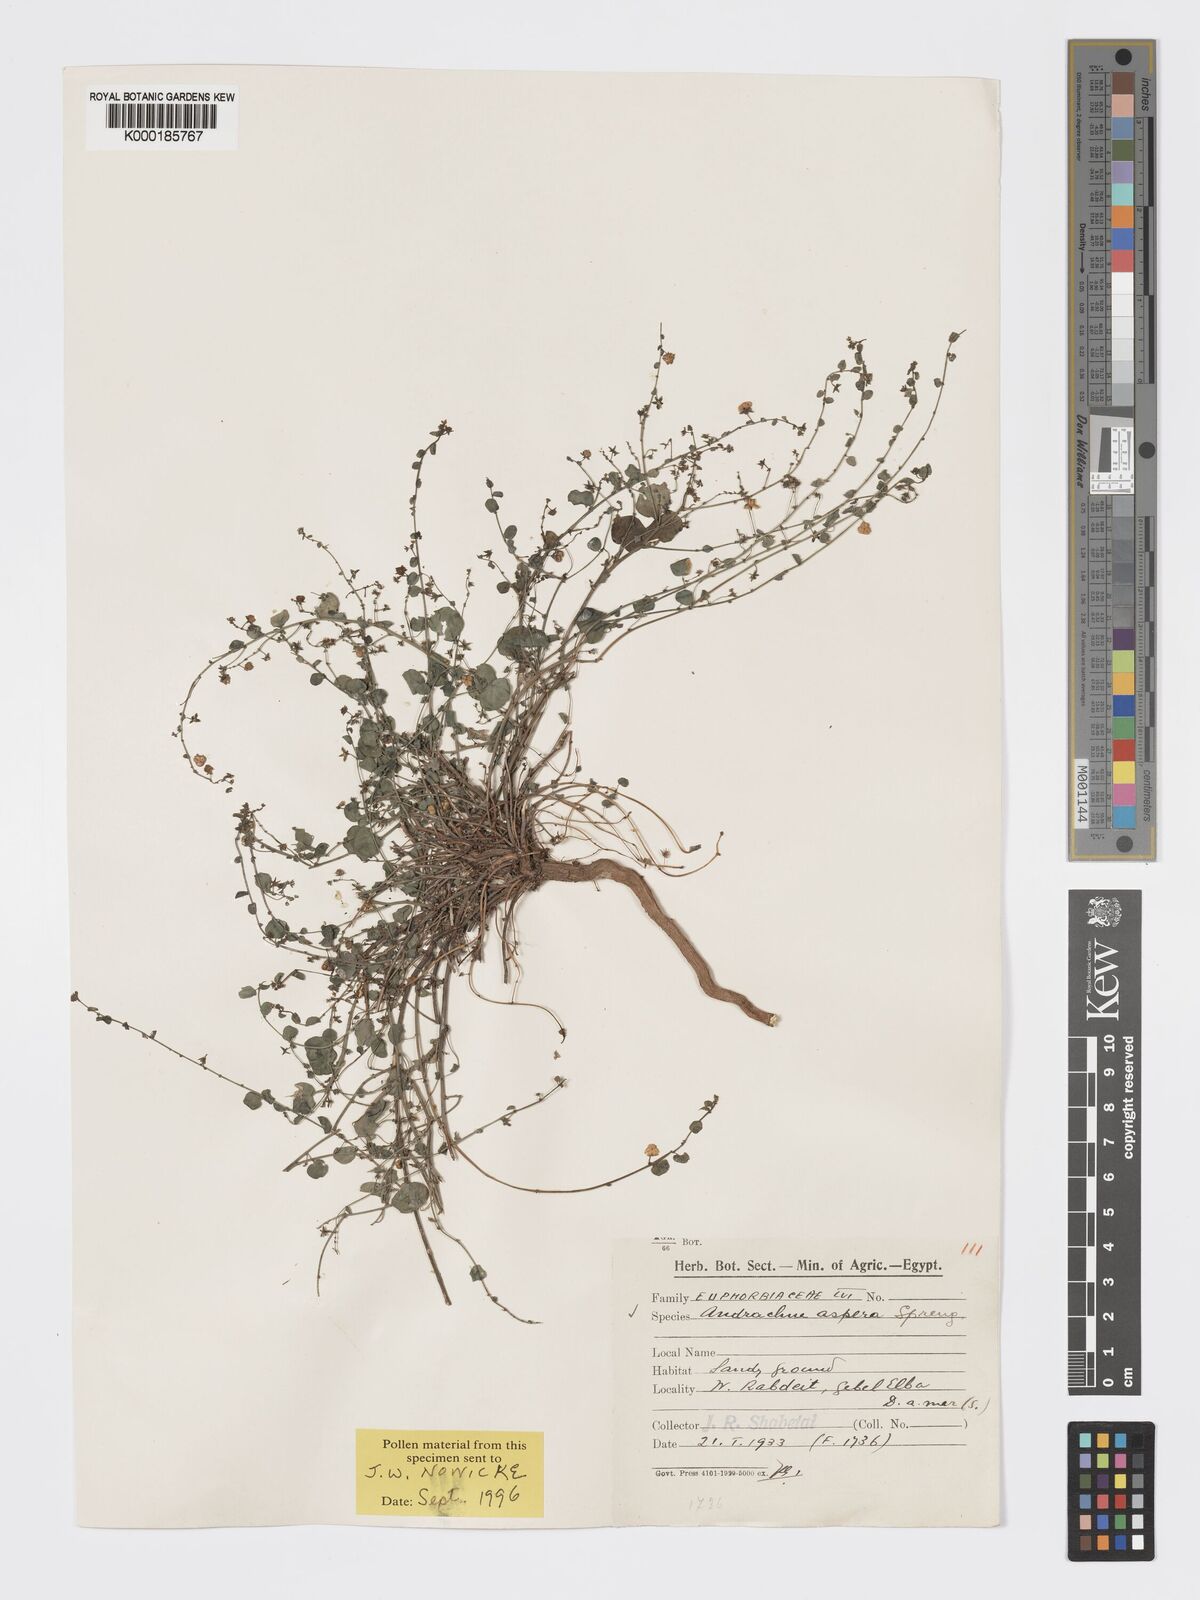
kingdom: Plantae
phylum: Tracheophyta
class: Magnoliopsida
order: Malpighiales
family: Phyllanthaceae
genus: Andrachne
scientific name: Andrachne aspera
